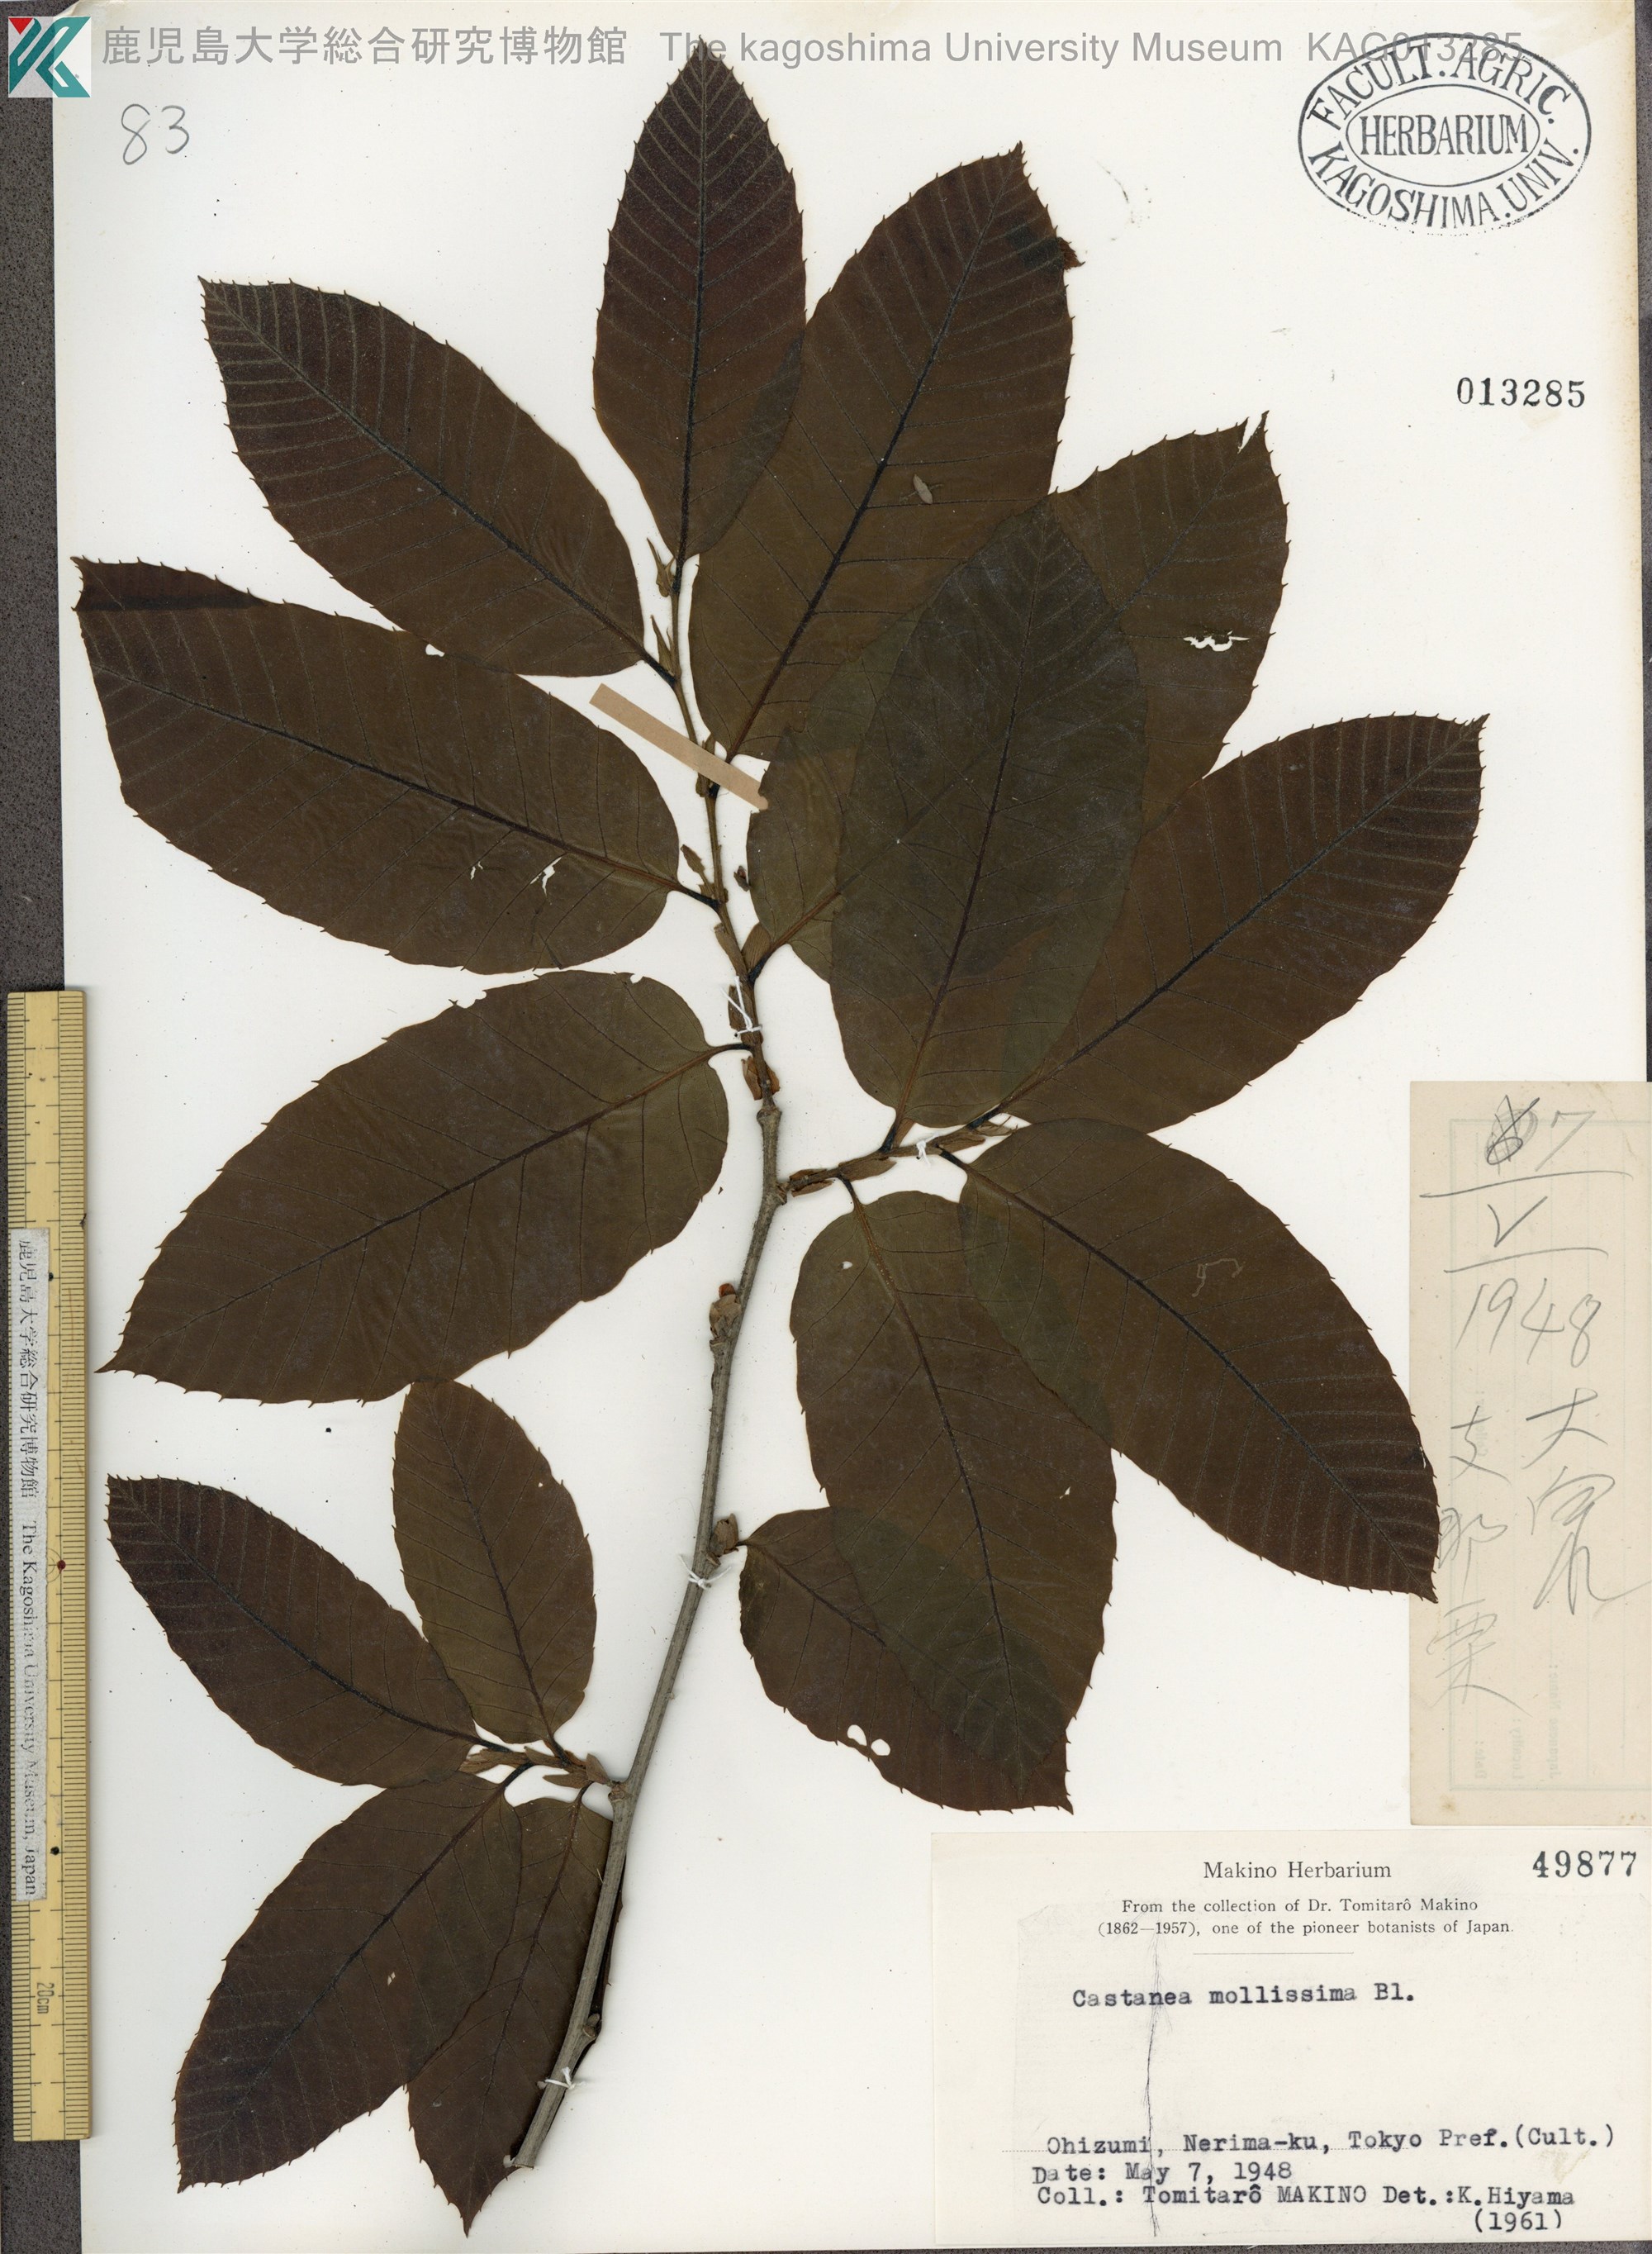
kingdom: Plantae
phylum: Tracheophyta
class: Magnoliopsida
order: Fagales
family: Fagaceae
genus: Castanea
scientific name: Castanea mollissima
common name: Chinese chestnut
